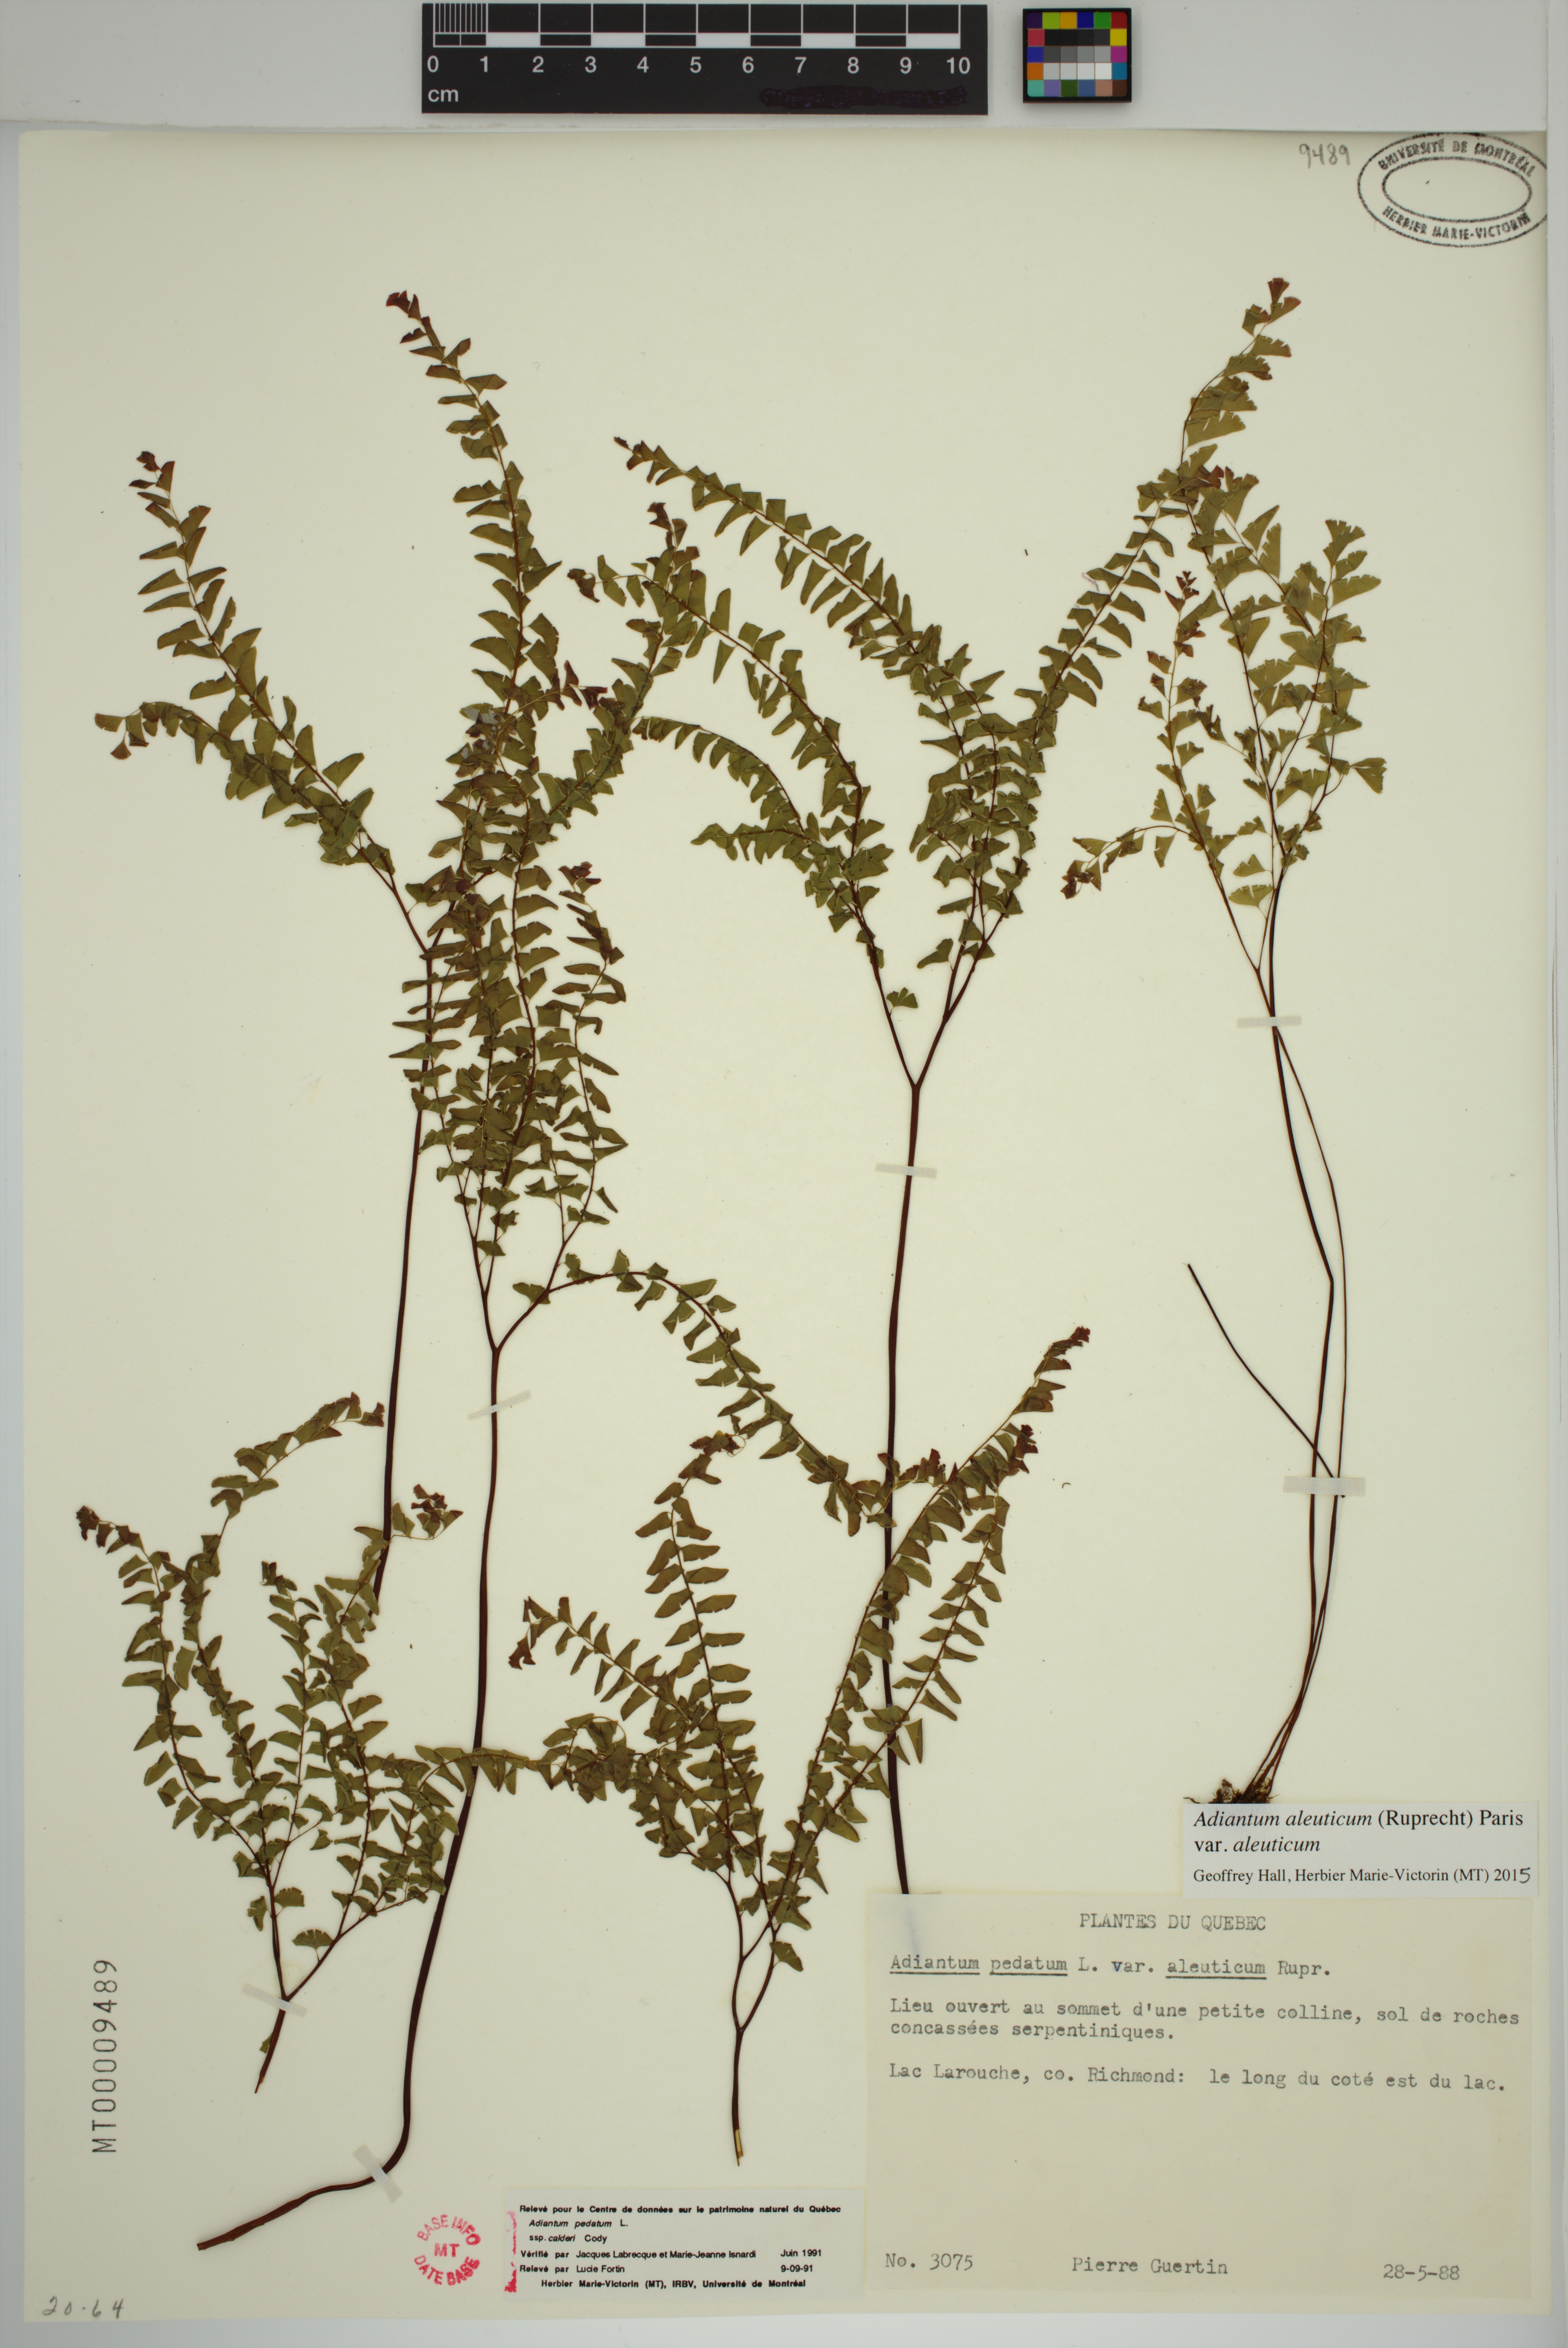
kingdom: Plantae
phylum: Tracheophyta
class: Polypodiopsida
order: Polypodiales
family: Pteridaceae
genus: Adiantum
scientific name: Adiantum aleuticum
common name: Aleutian maidenhair fern
